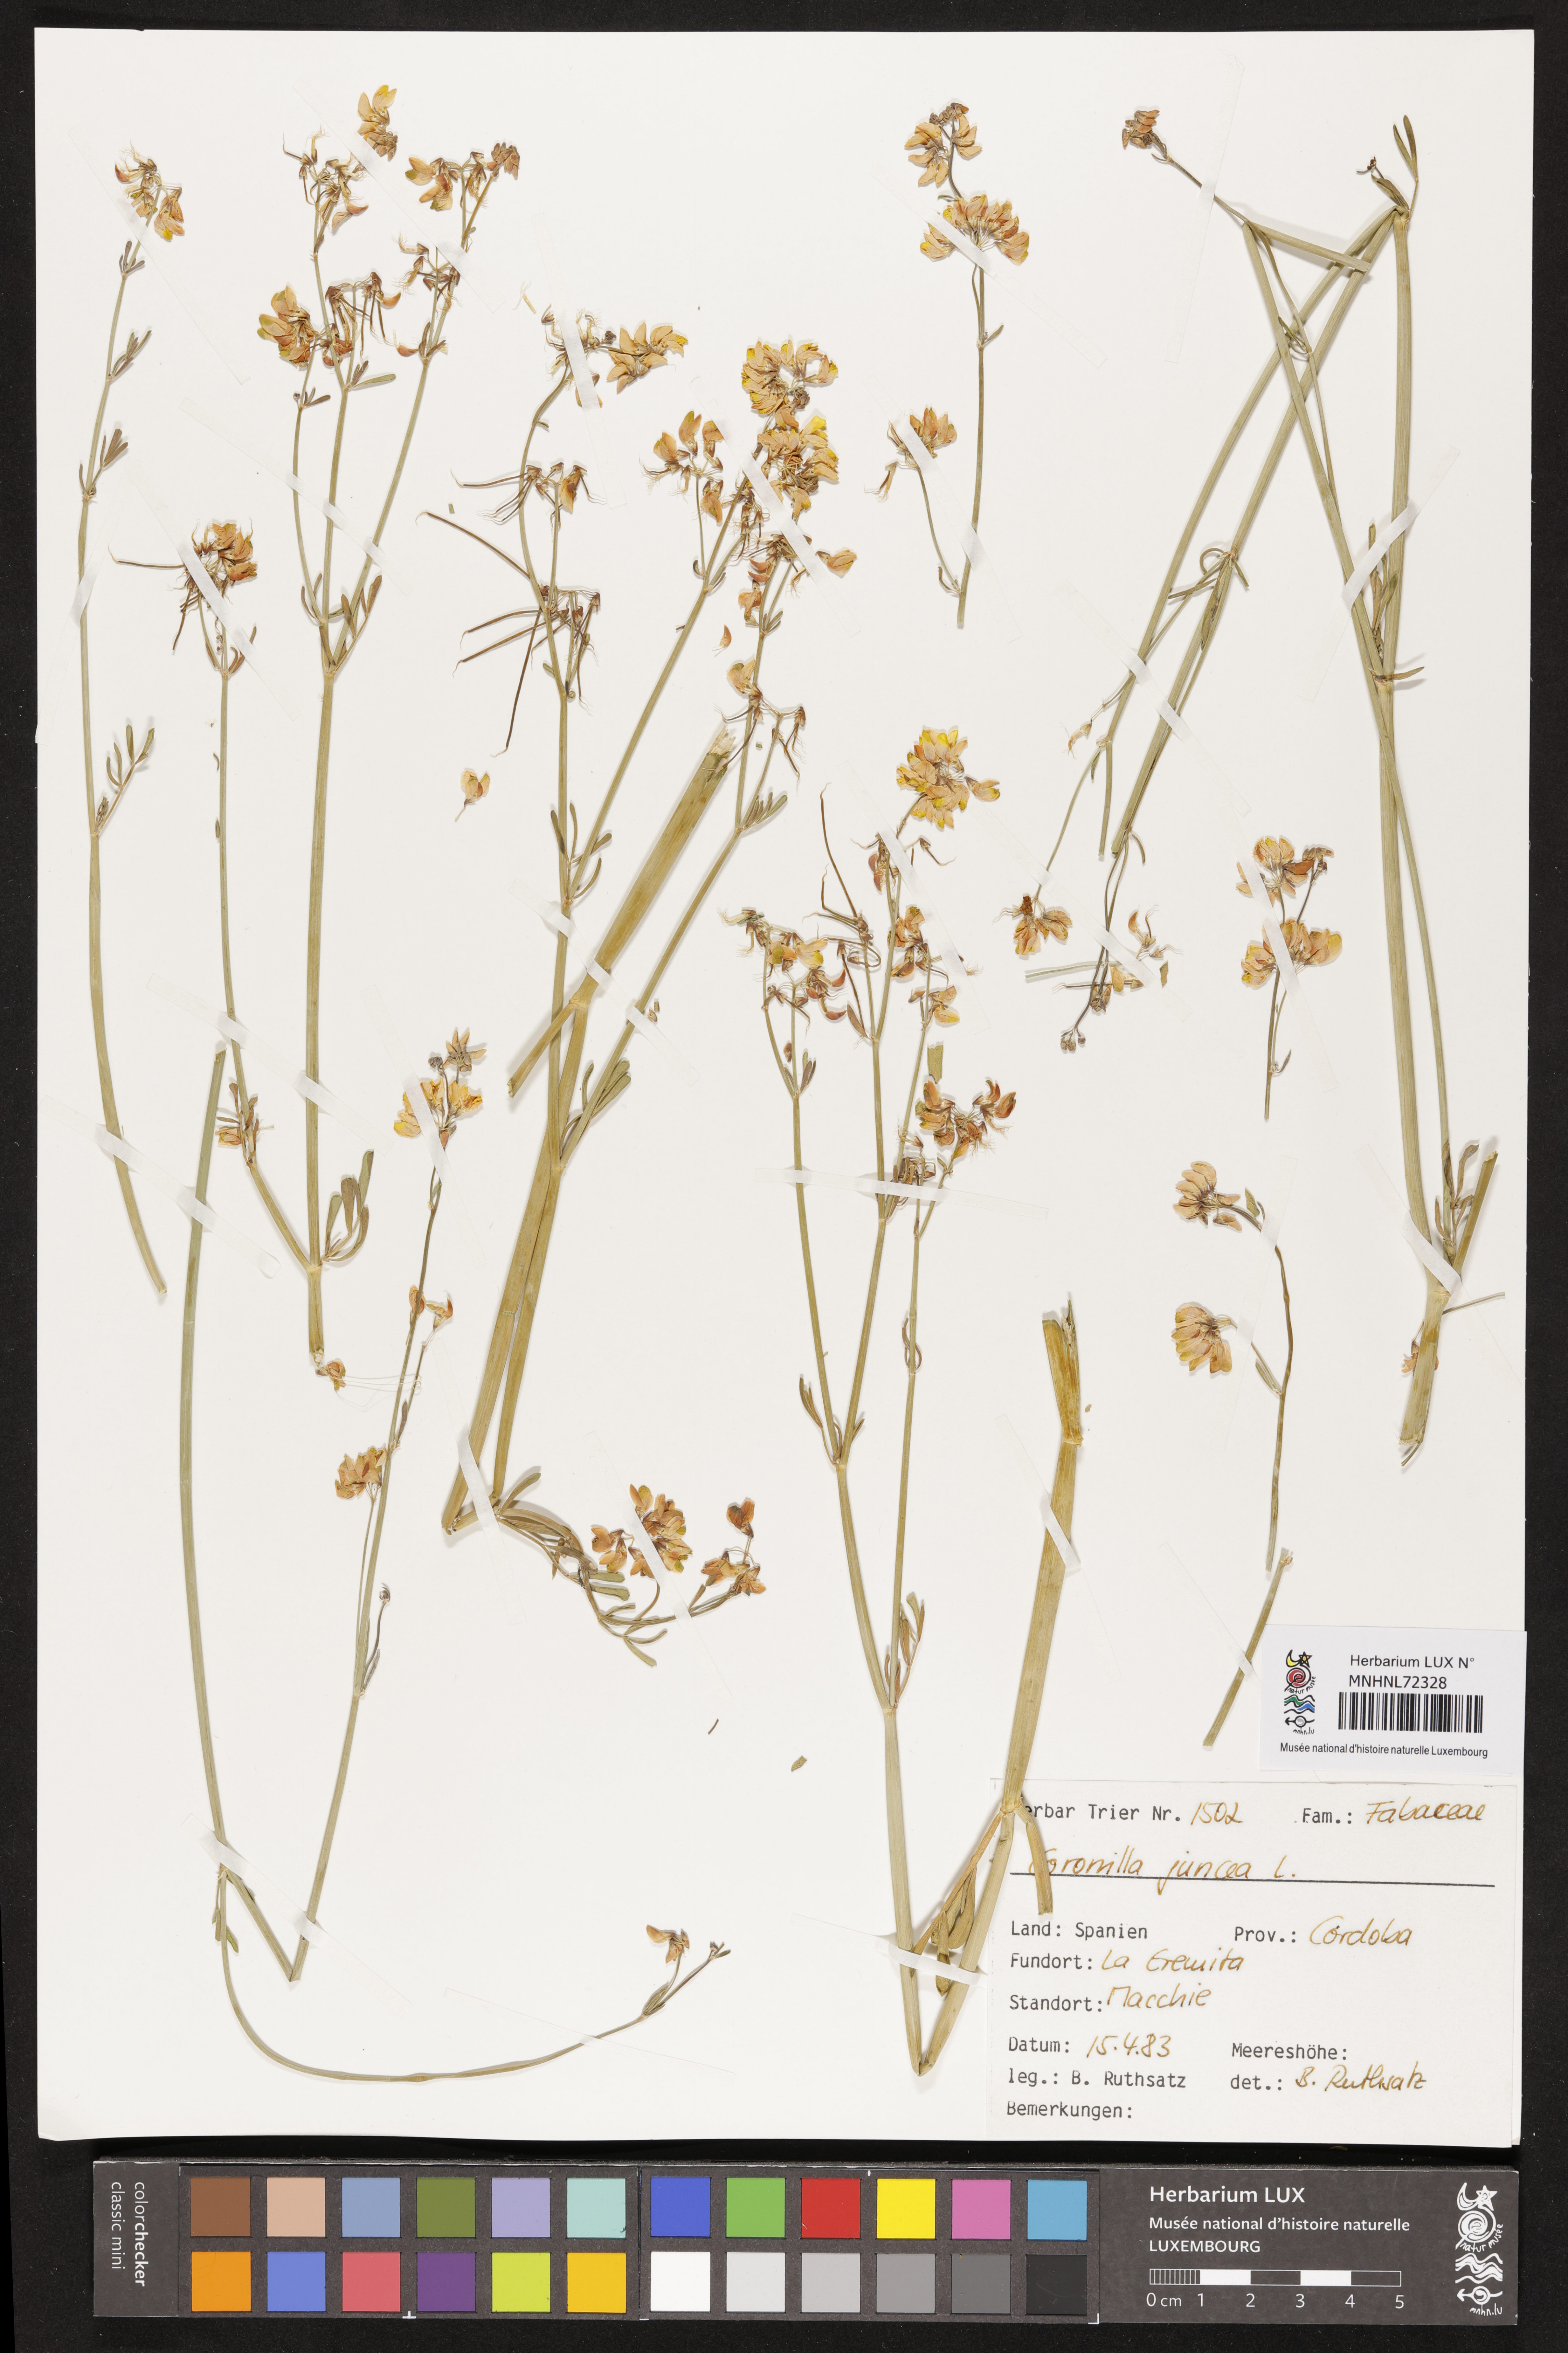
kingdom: Plantae
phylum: Tracheophyta
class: Magnoliopsida
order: Fabales
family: Fabaceae
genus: Coronilla
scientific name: Coronilla juncea
